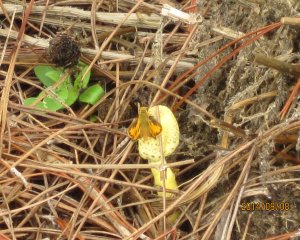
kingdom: Animalia
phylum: Arthropoda
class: Insecta
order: Lepidoptera
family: Hesperiidae
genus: Hylephila
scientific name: Hylephila phyleus
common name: Fiery Skipper
